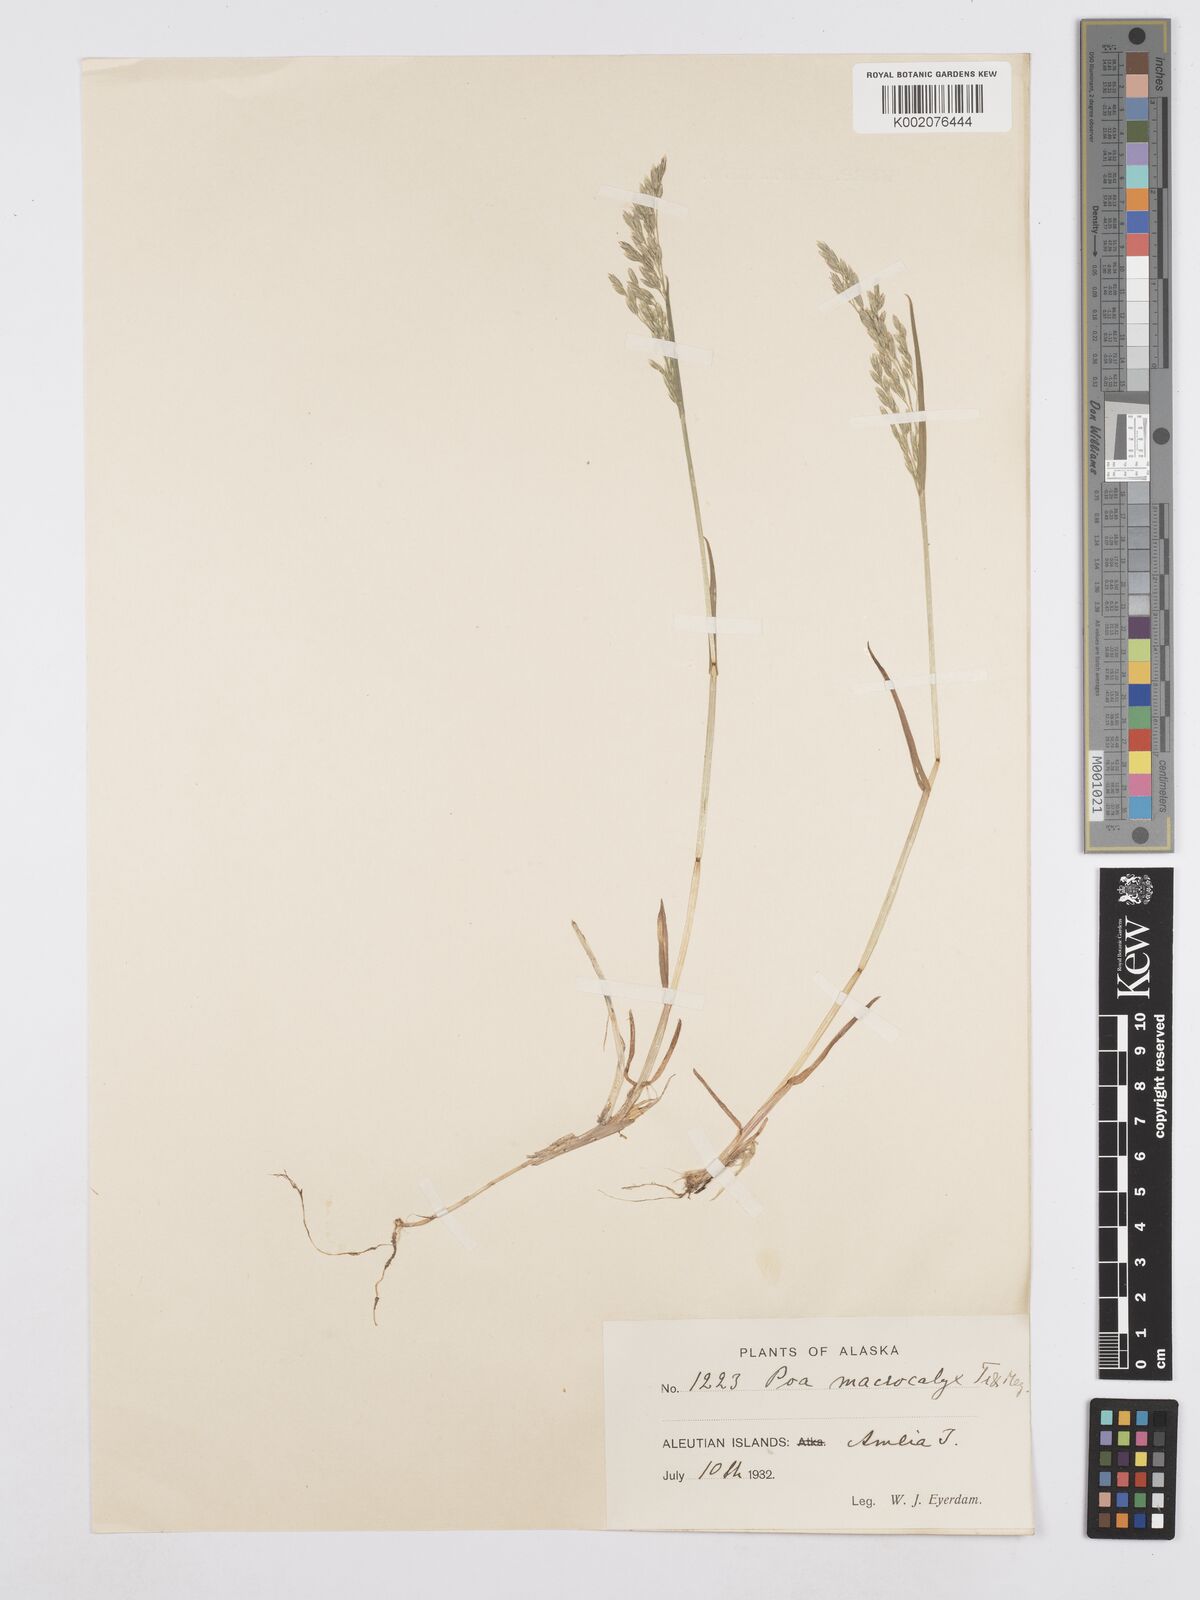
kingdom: Plantae
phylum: Tracheophyta
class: Liliopsida
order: Poales
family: Poaceae
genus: Poa
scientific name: Poa macrocalyx
